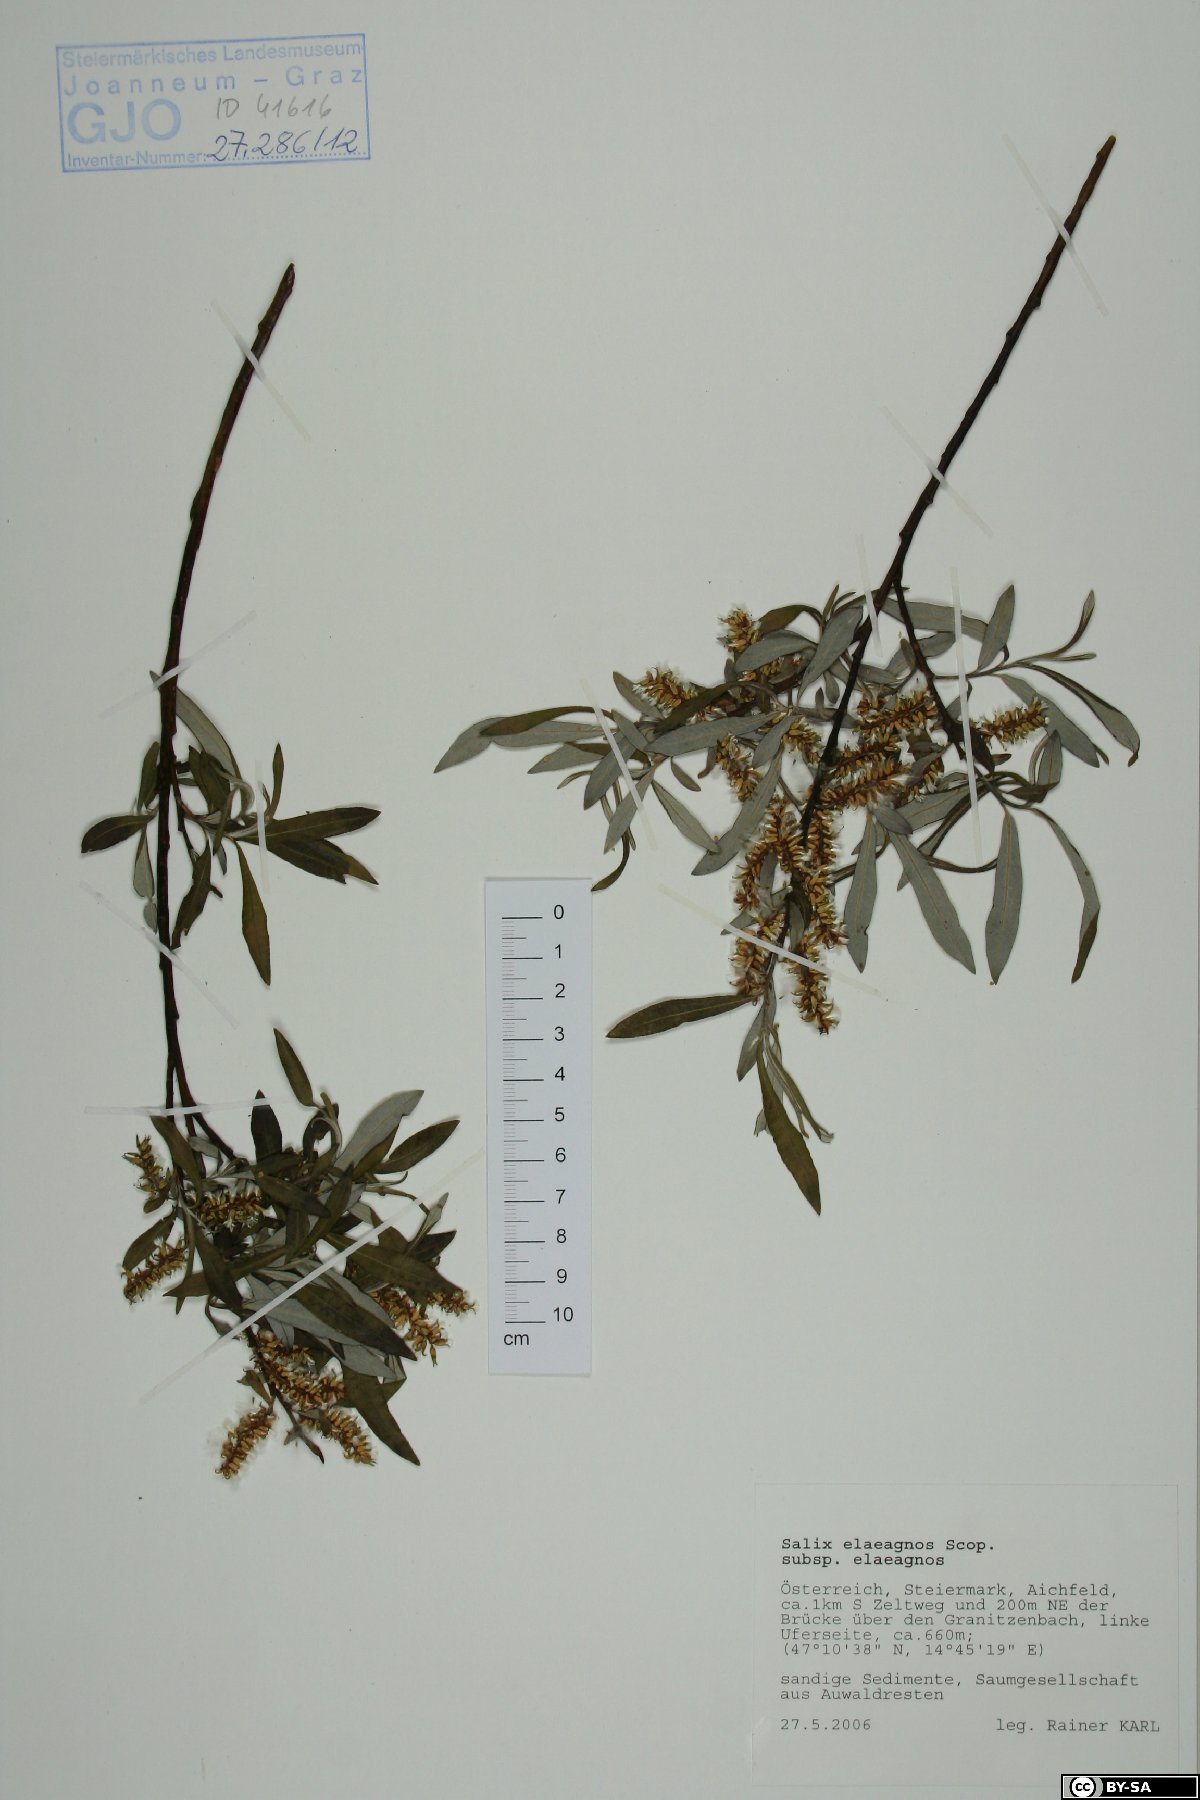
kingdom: Plantae
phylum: Tracheophyta
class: Magnoliopsida
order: Malpighiales
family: Salicaceae
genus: Salix
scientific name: Salix eleagnos
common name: Elaeagnus willow
